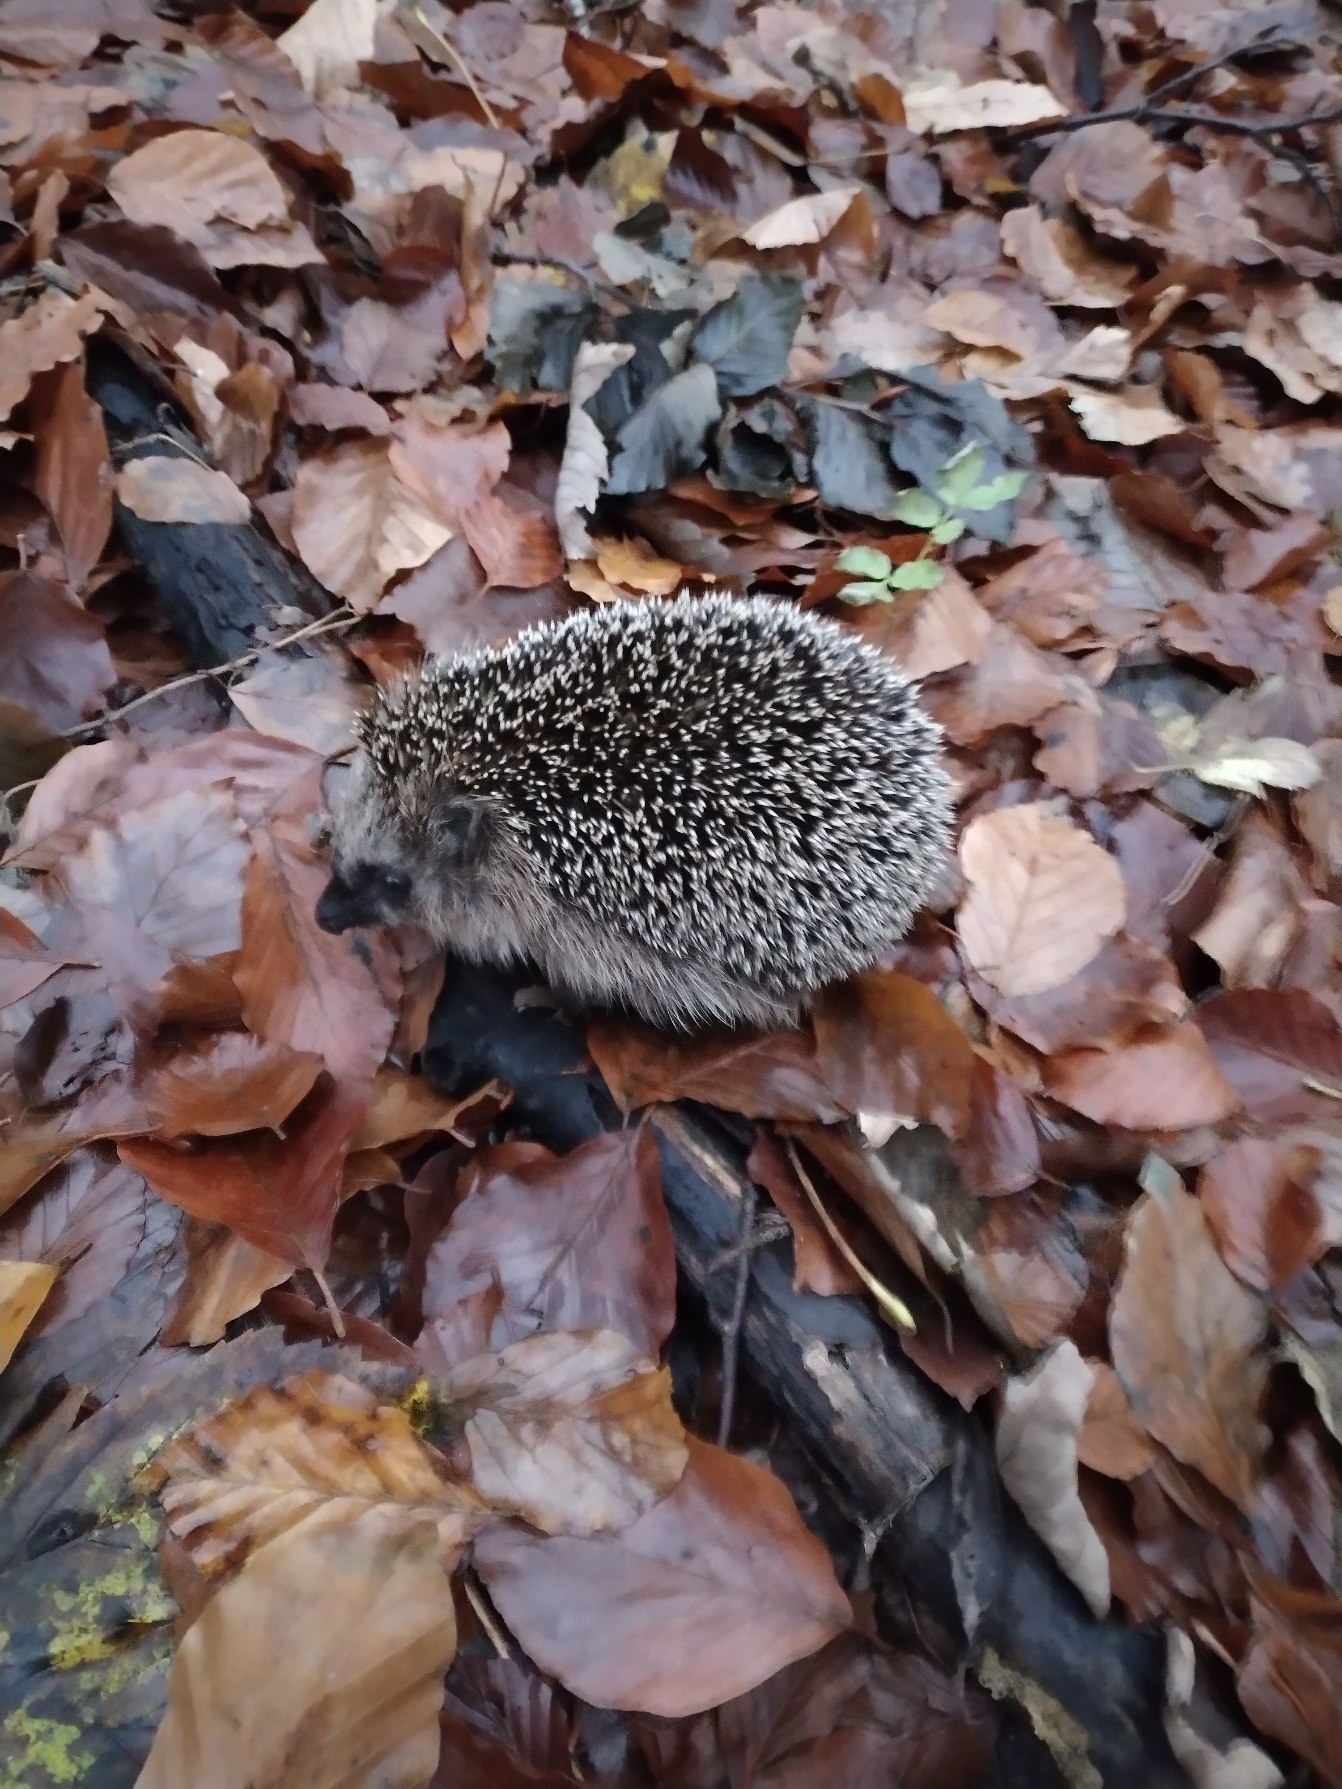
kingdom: Animalia
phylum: Chordata
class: Mammalia
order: Erinaceomorpha
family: Erinaceidae
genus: Erinaceus
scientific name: Erinaceus europaeus
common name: Pindsvin
